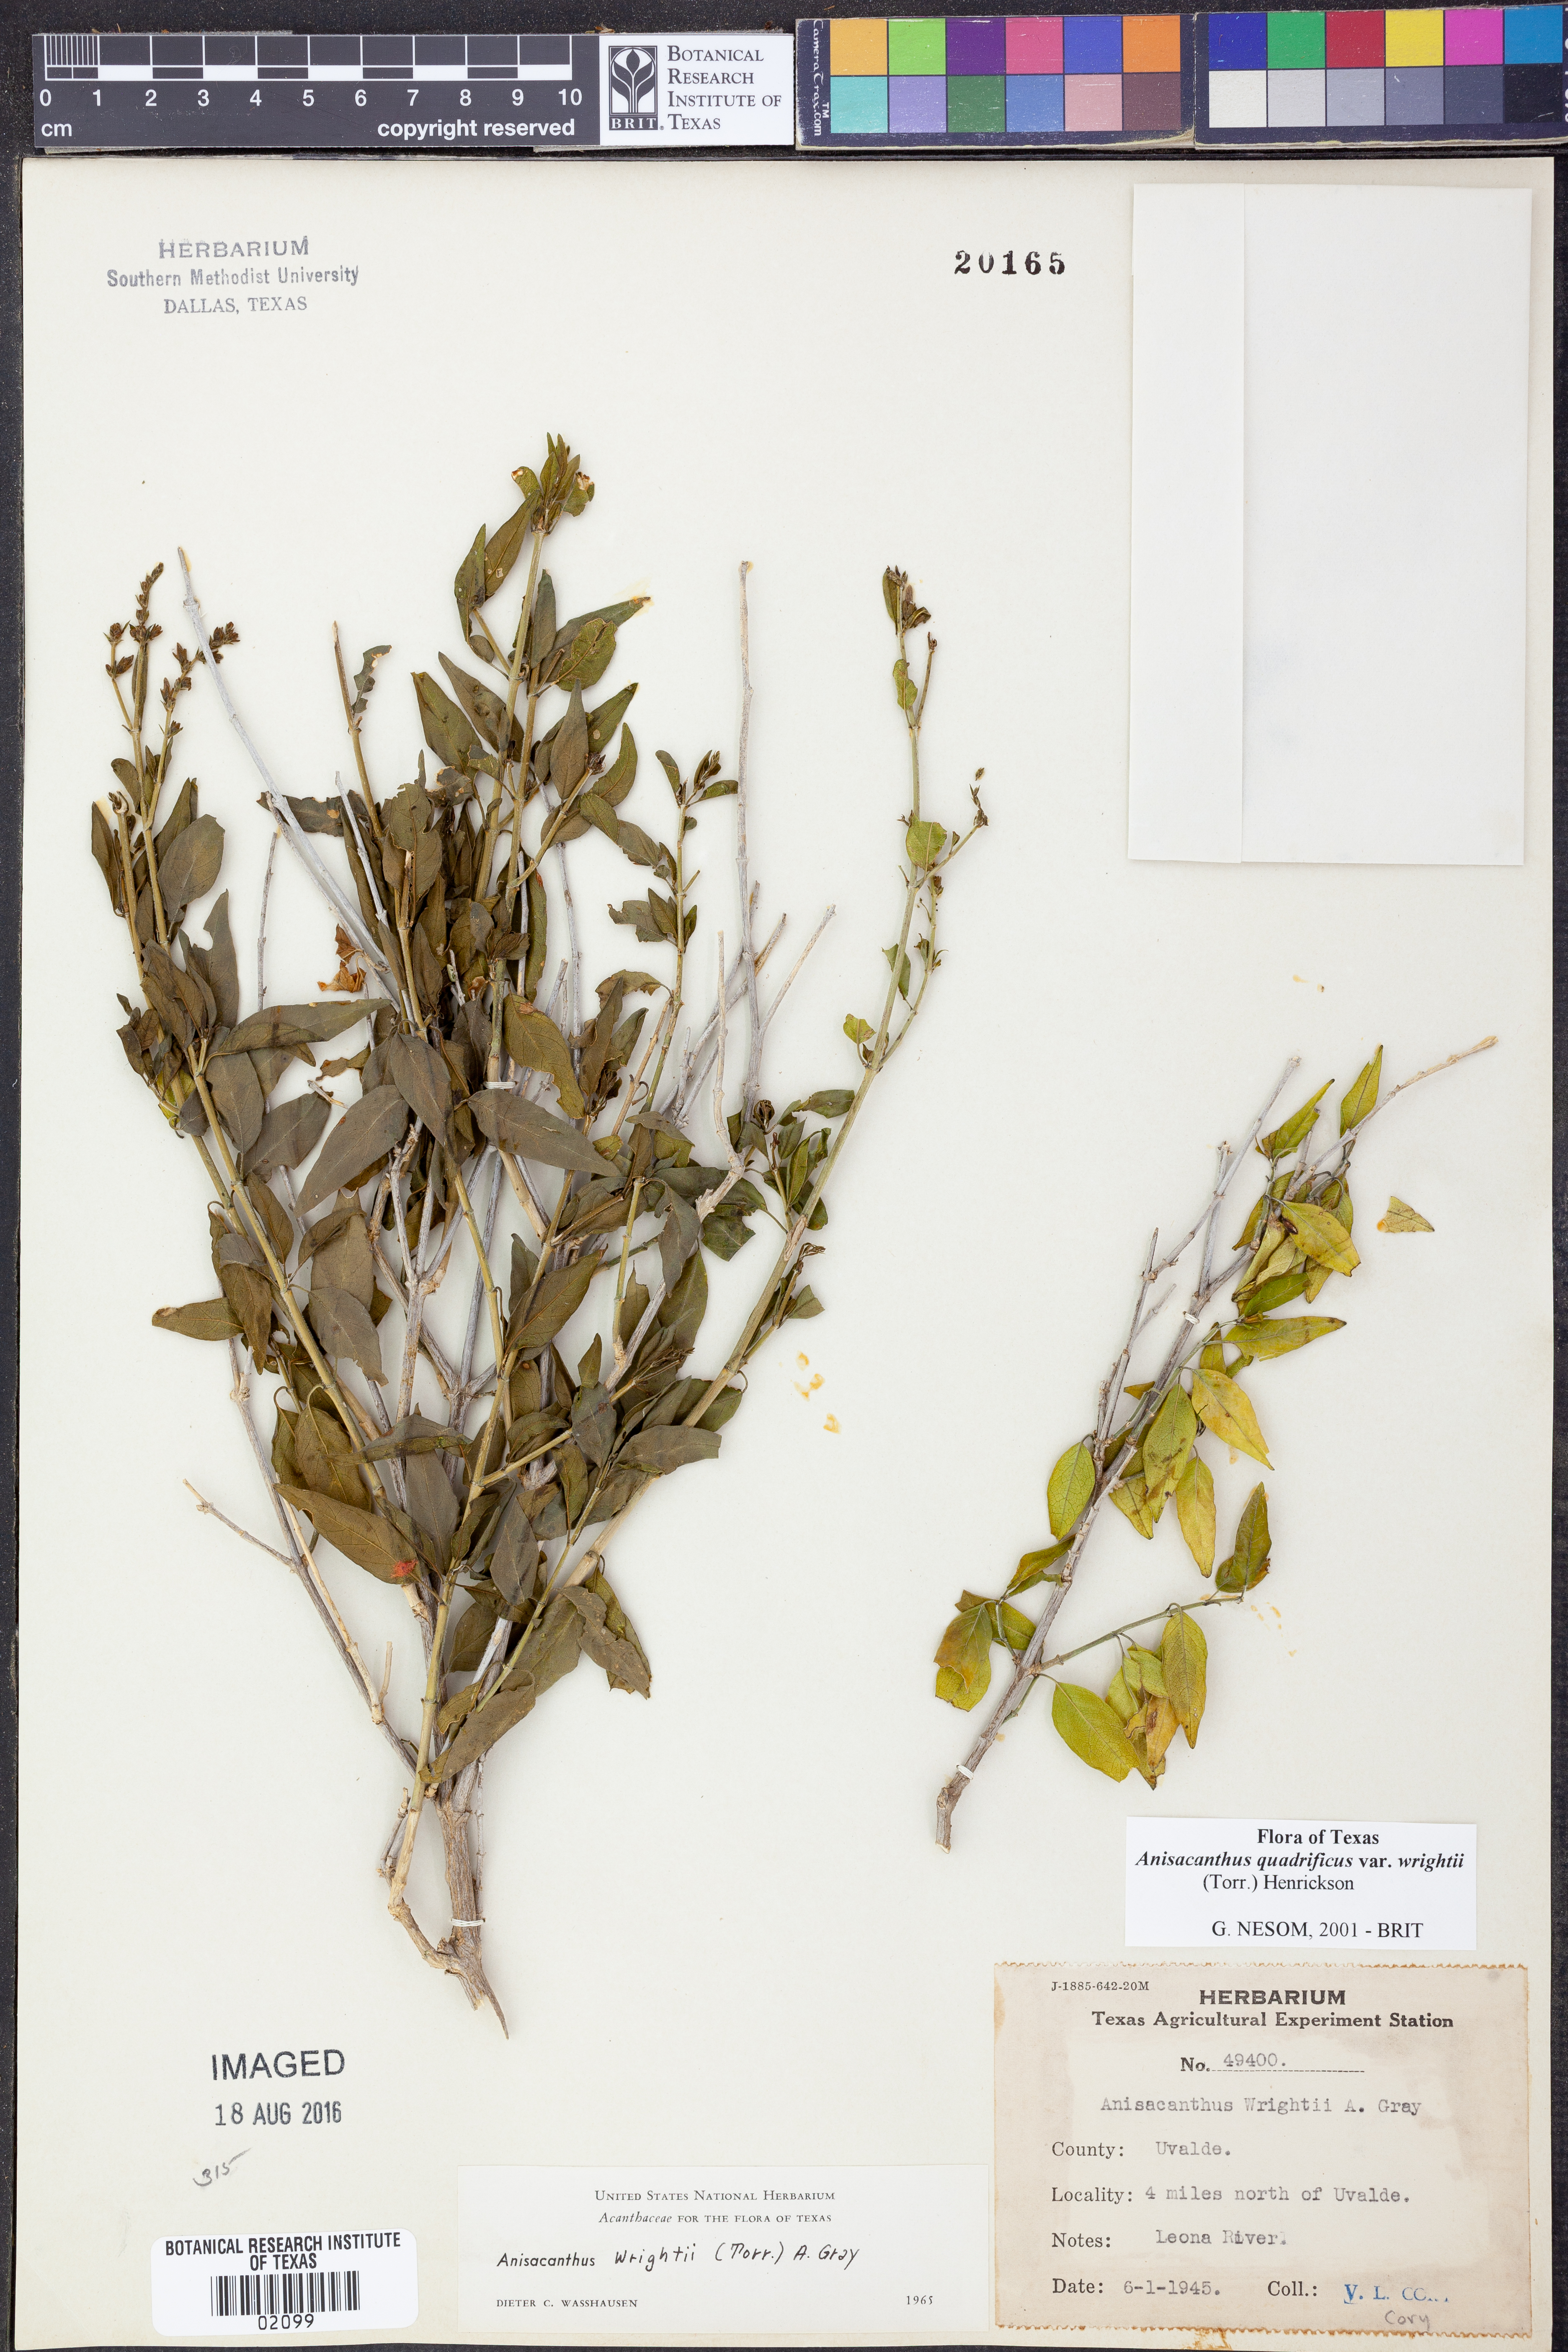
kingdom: Plantae
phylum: Tracheophyta
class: Magnoliopsida
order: Lamiales
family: Acanthaceae
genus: Anisacanthus
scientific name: Anisacanthus quadrifidus
